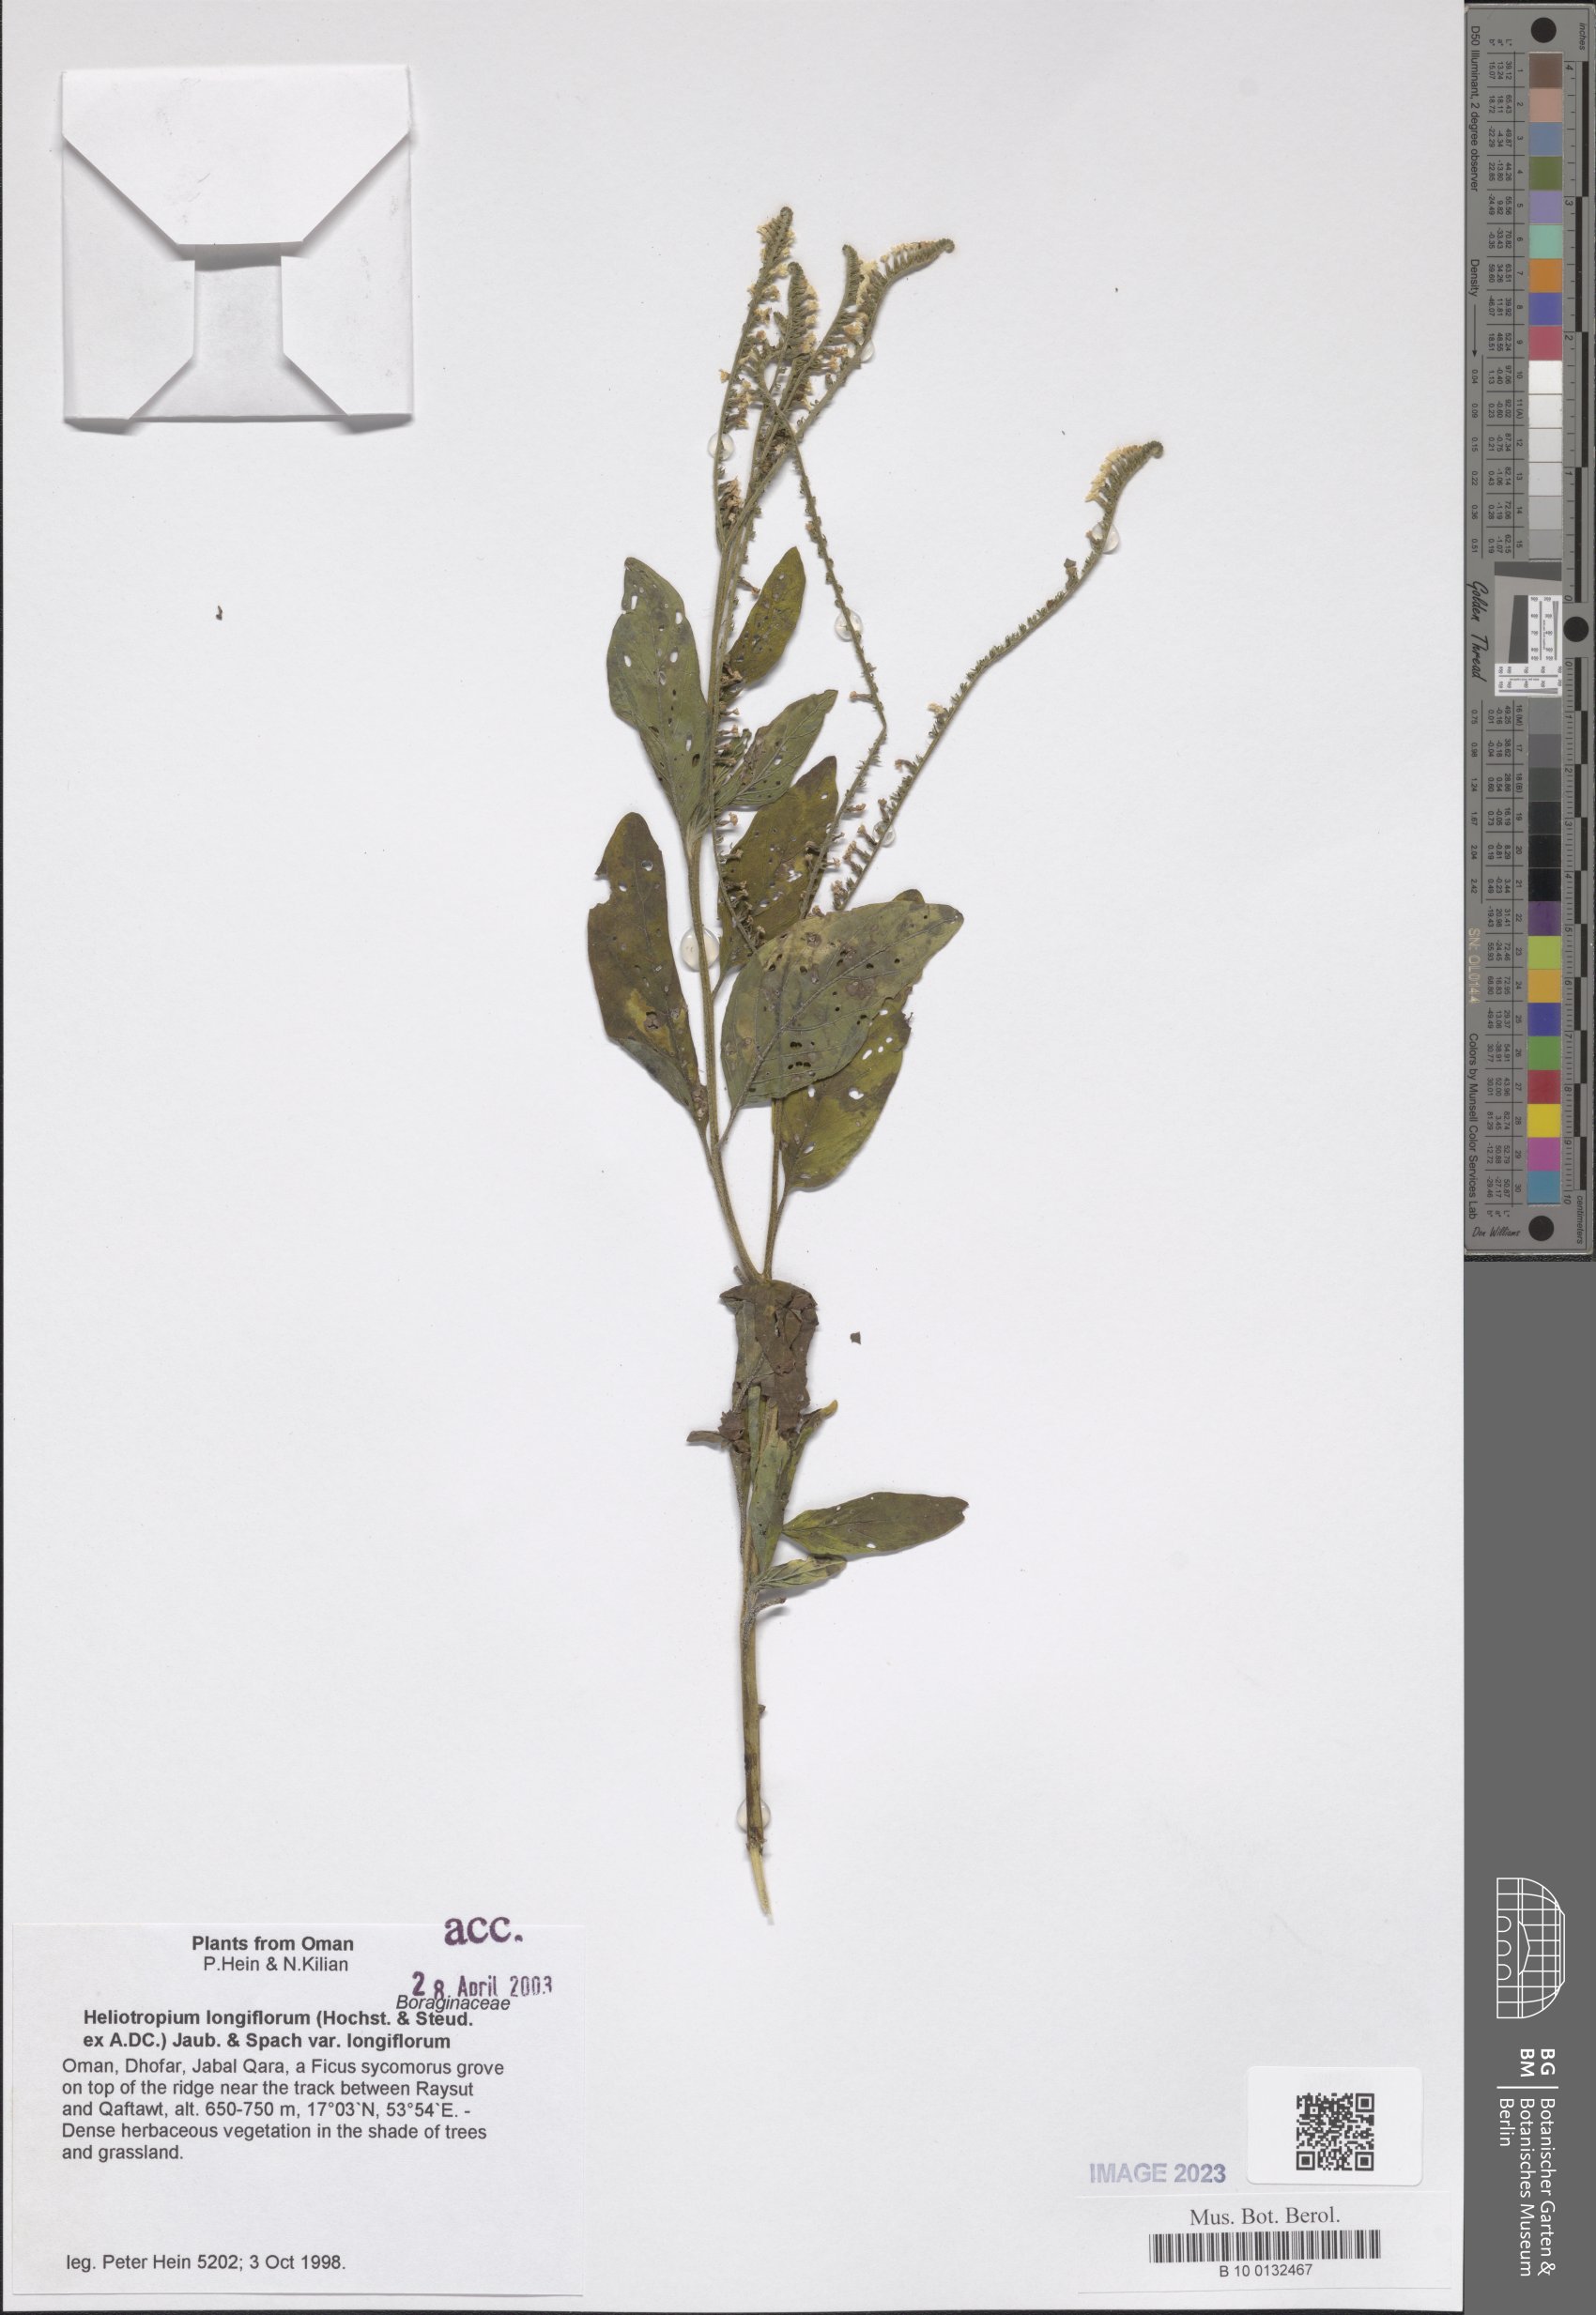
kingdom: Plantae
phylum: Tracheophyta
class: Magnoliopsida
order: Boraginales
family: Heliotropiaceae
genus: Heliotropium
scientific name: Heliotropium longiflorum
